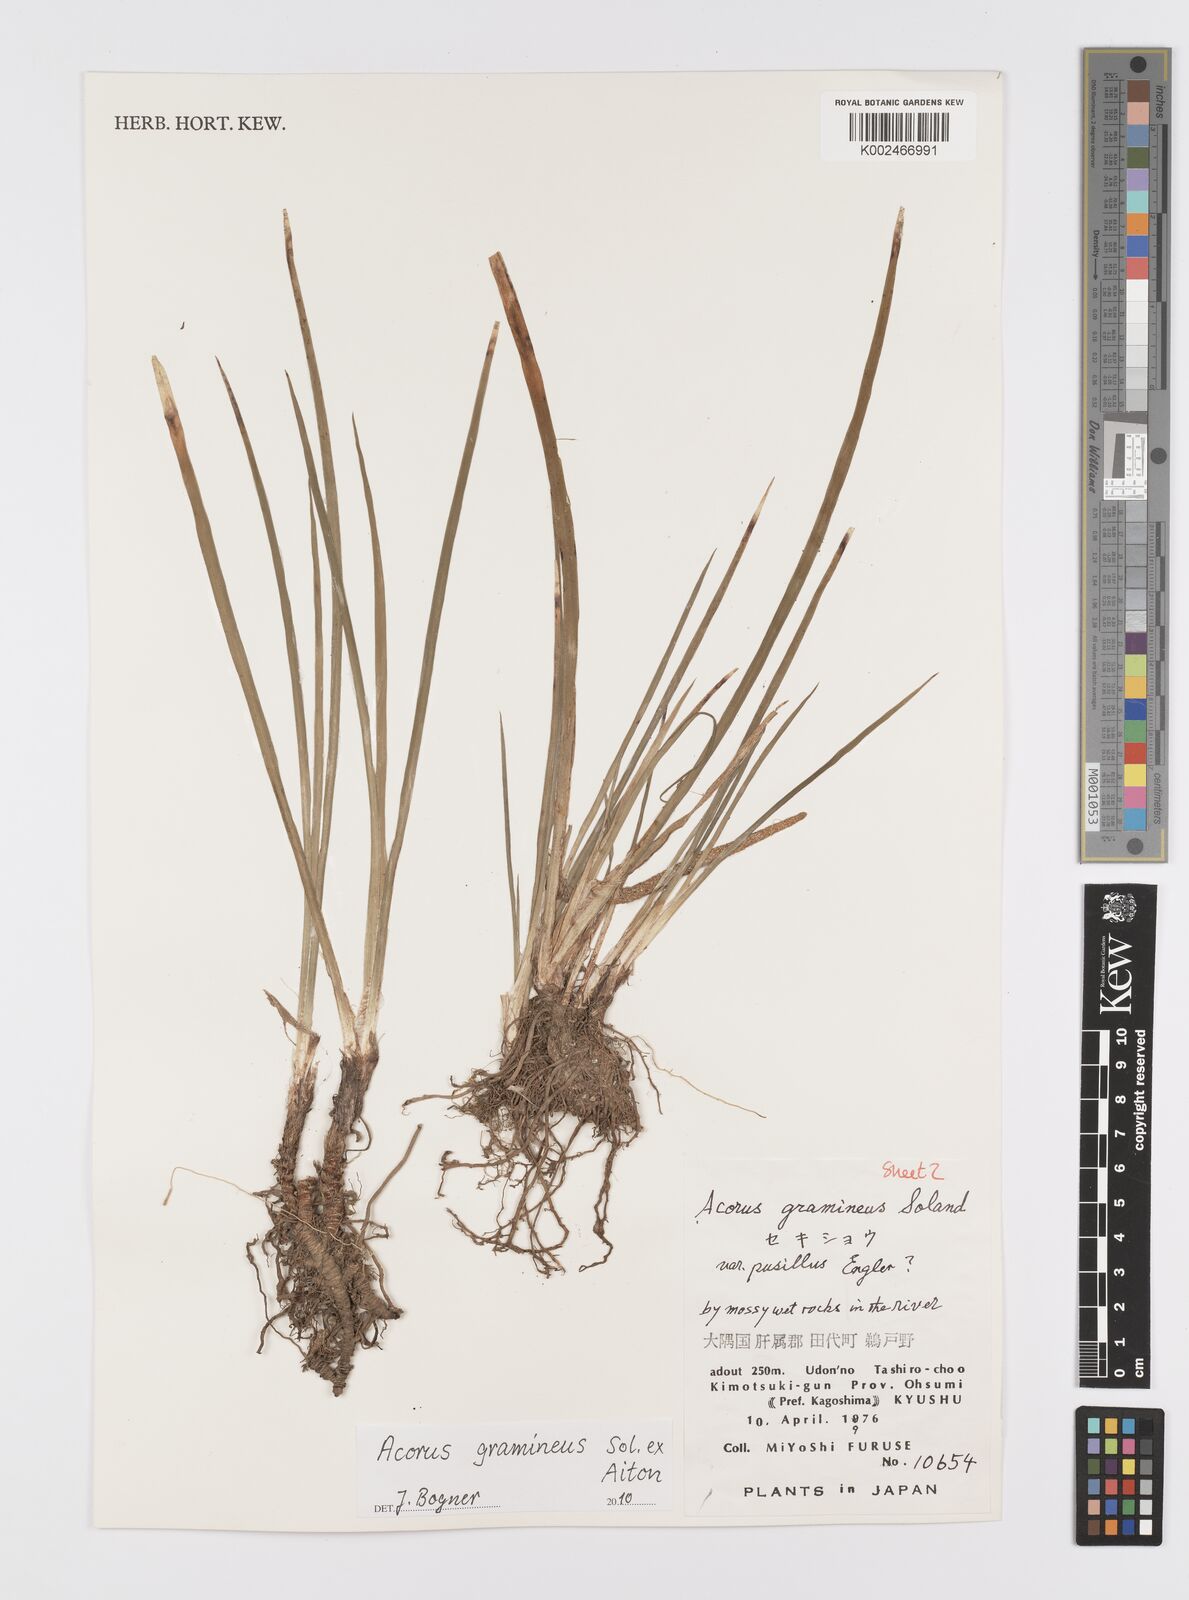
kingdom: Plantae
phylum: Tracheophyta
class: Liliopsida
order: Acorales
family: Acoraceae
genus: Acorus
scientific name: Acorus gramineus
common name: Slender sweet-flag
